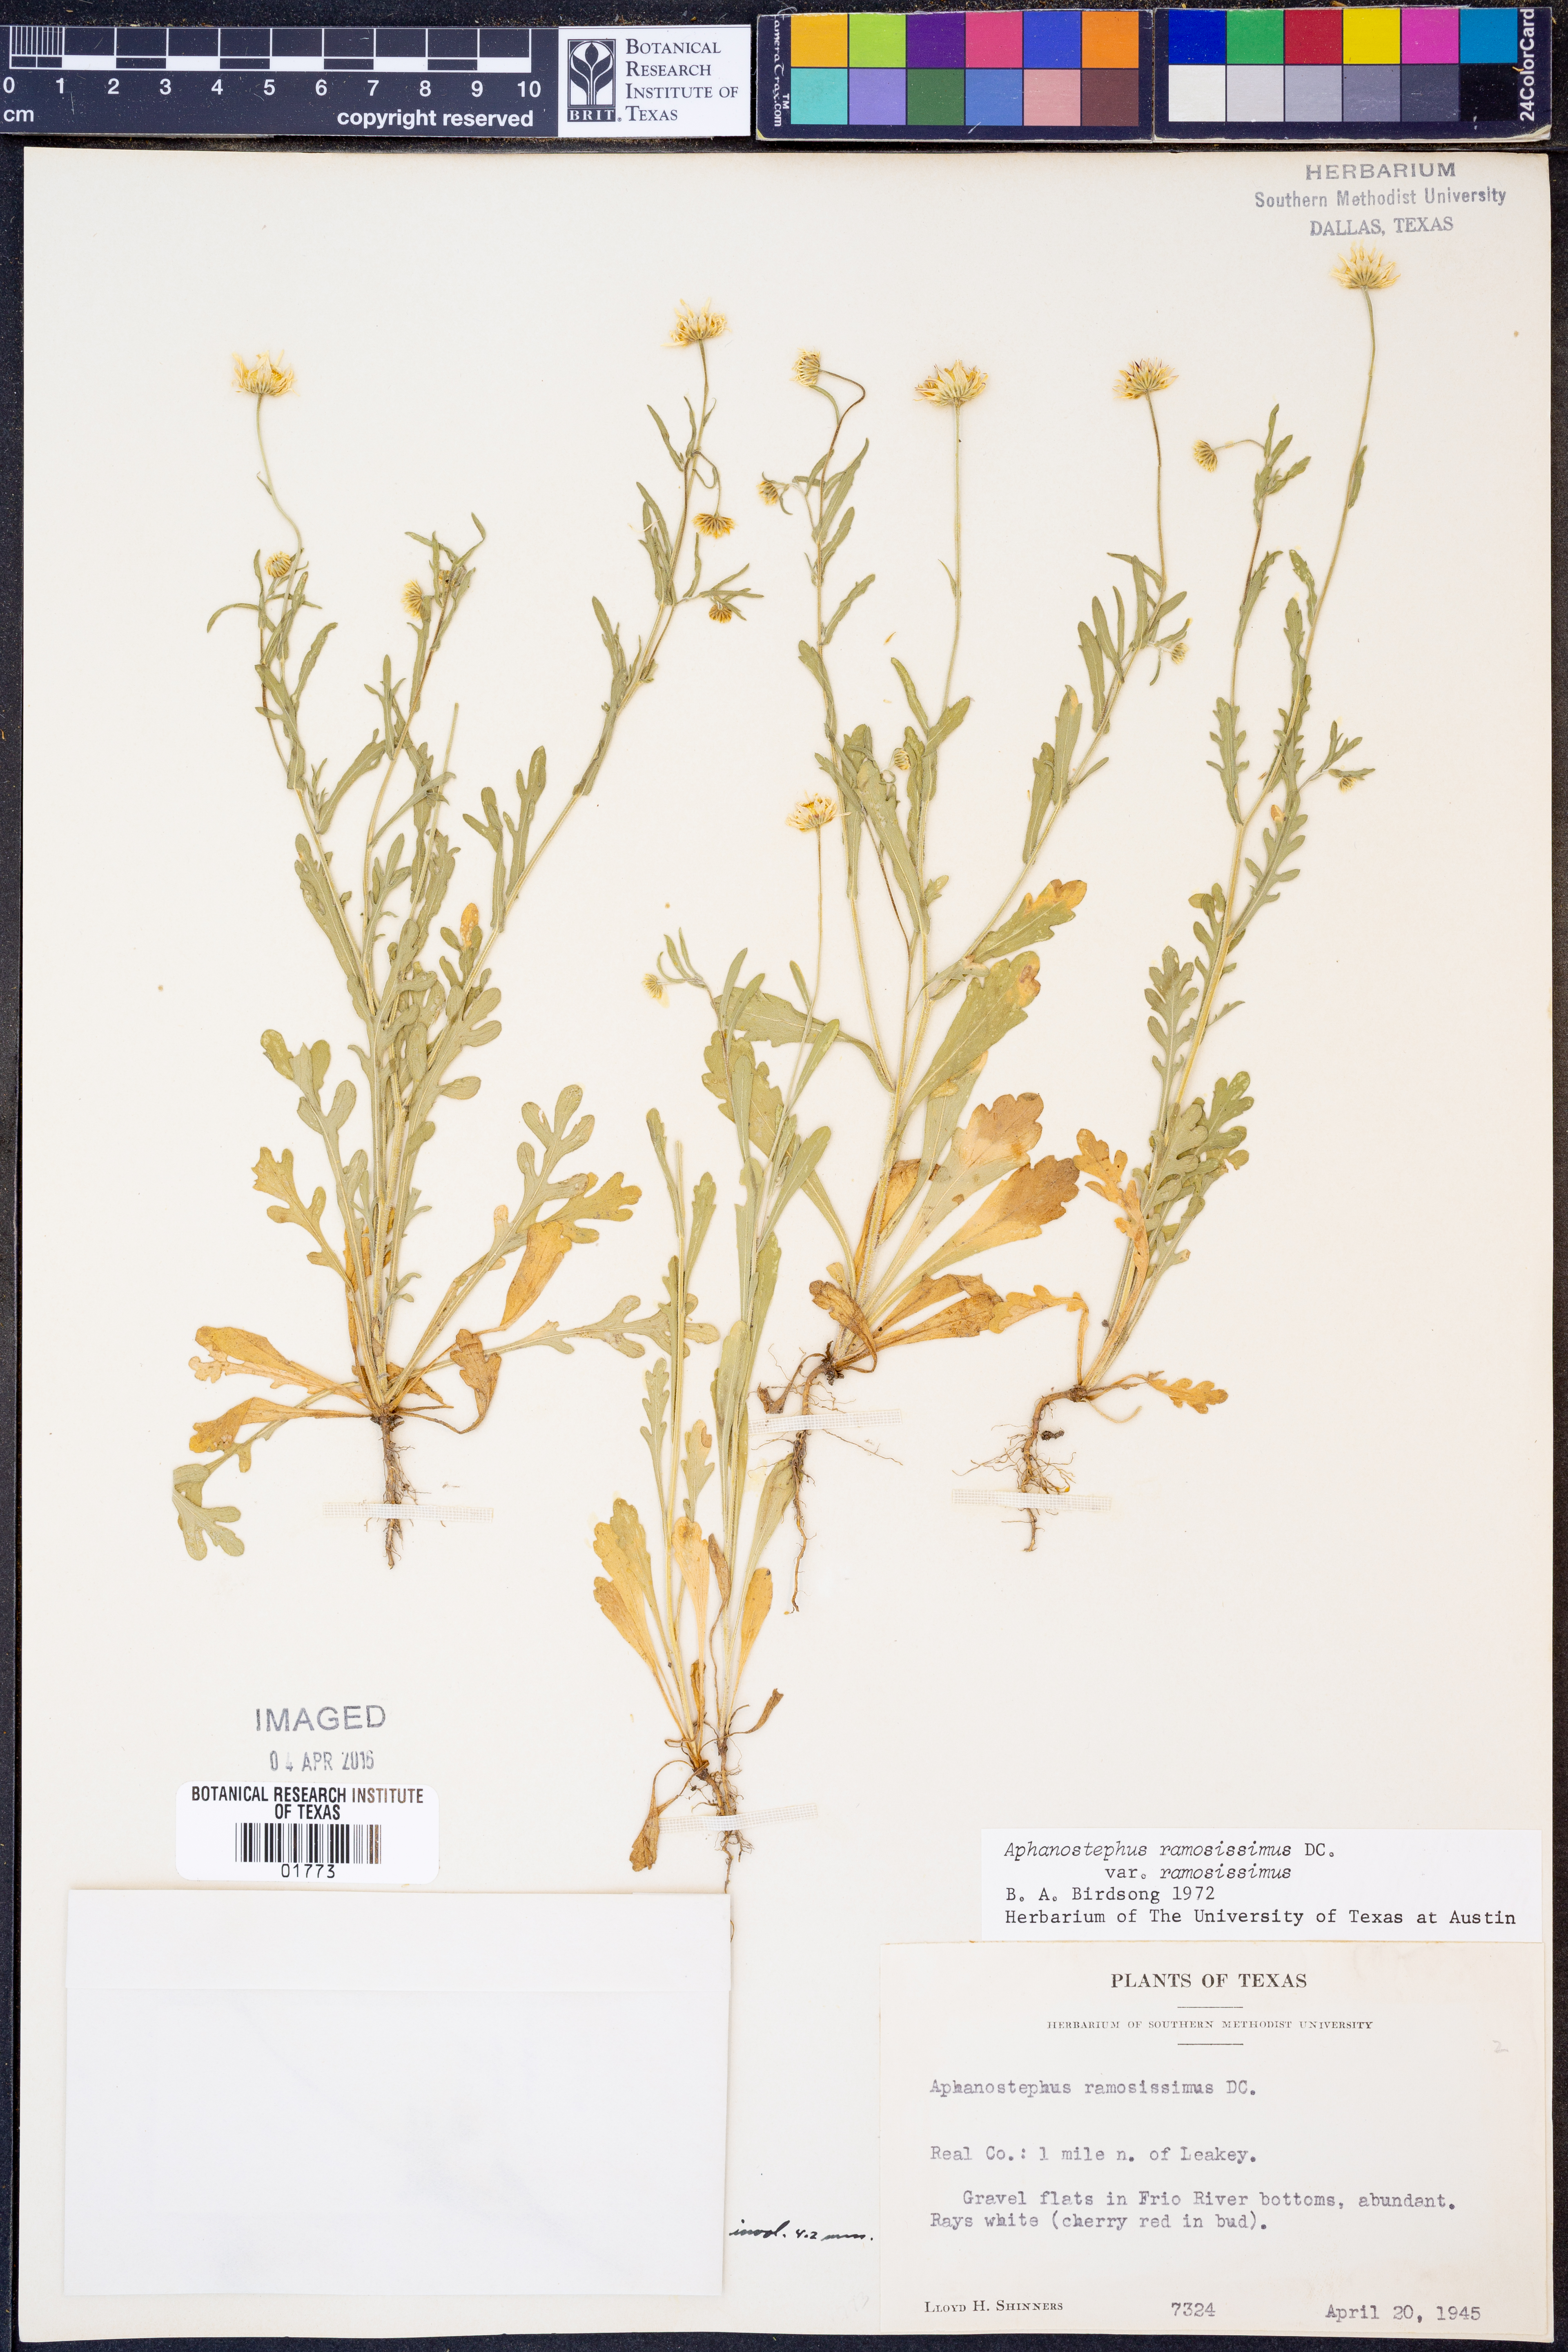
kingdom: Plantae
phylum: Tracheophyta
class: Magnoliopsida
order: Asterales
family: Asteraceae
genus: Aphanostephus
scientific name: Aphanostephus ramosissimus
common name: Plains lazy daisy
